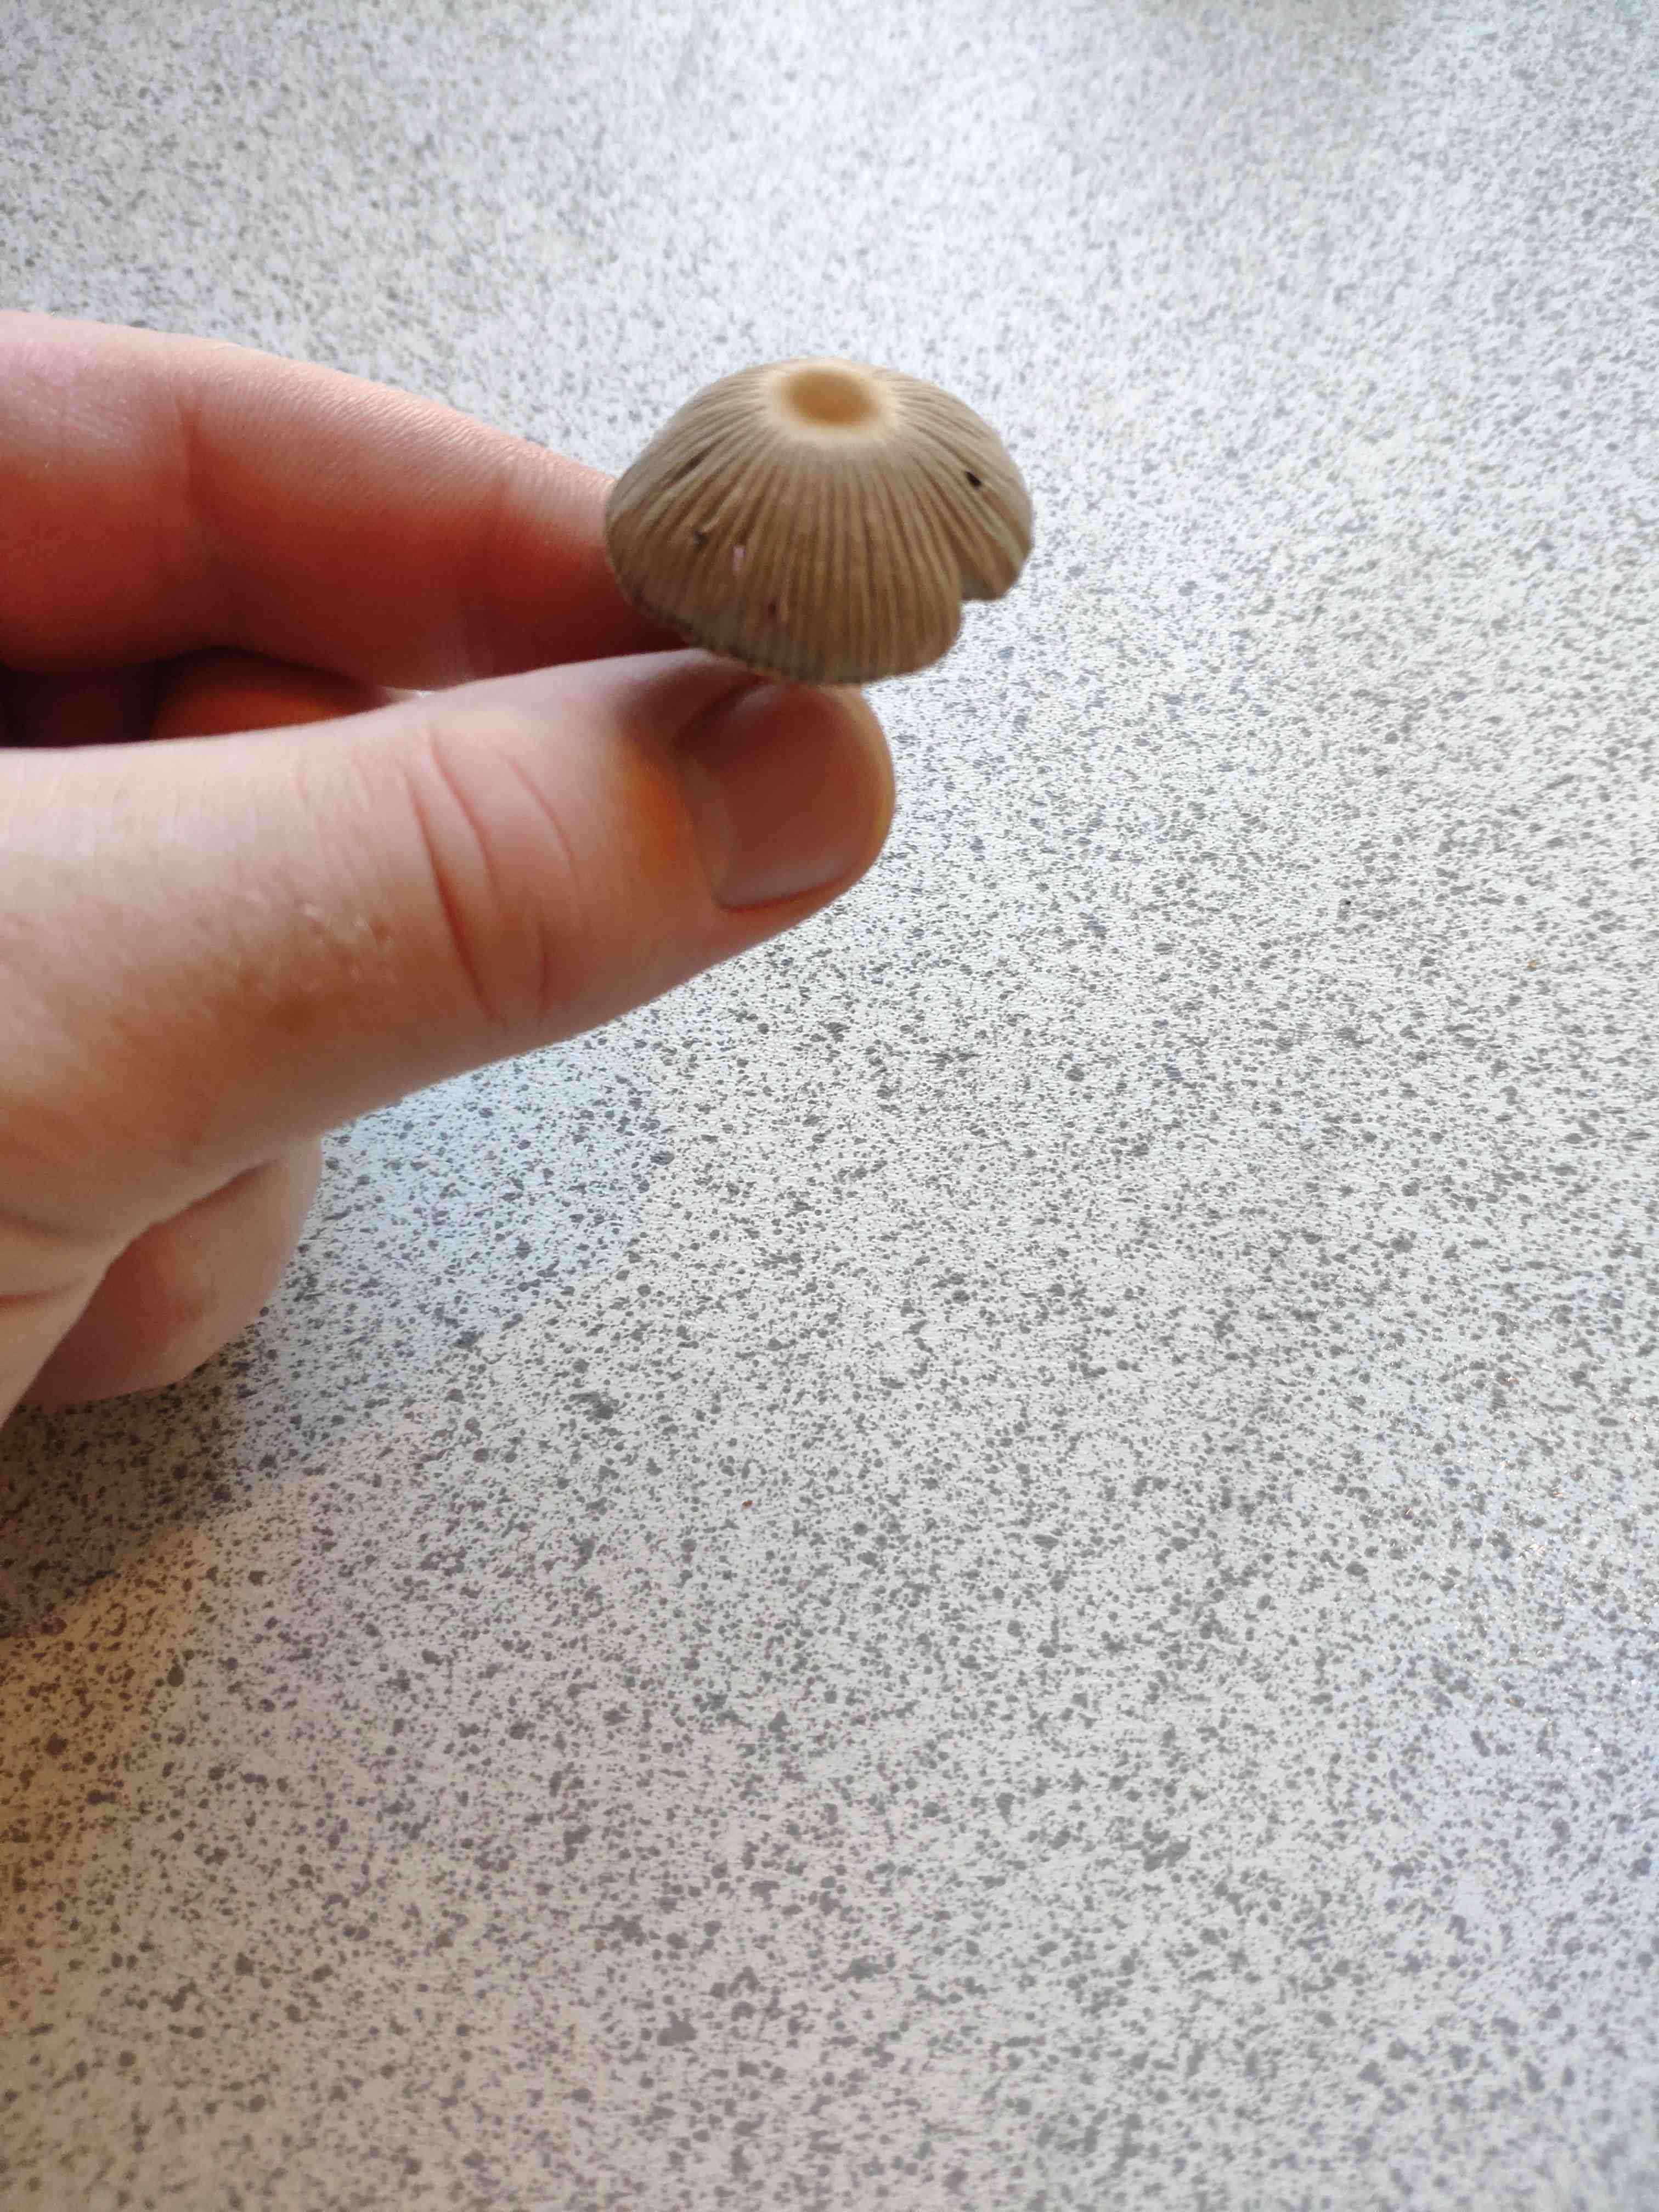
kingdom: Fungi
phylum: Basidiomycota
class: Agaricomycetes
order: Agaricales
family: Psathyrellaceae
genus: Parasola
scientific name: Parasola
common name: hjulhat
